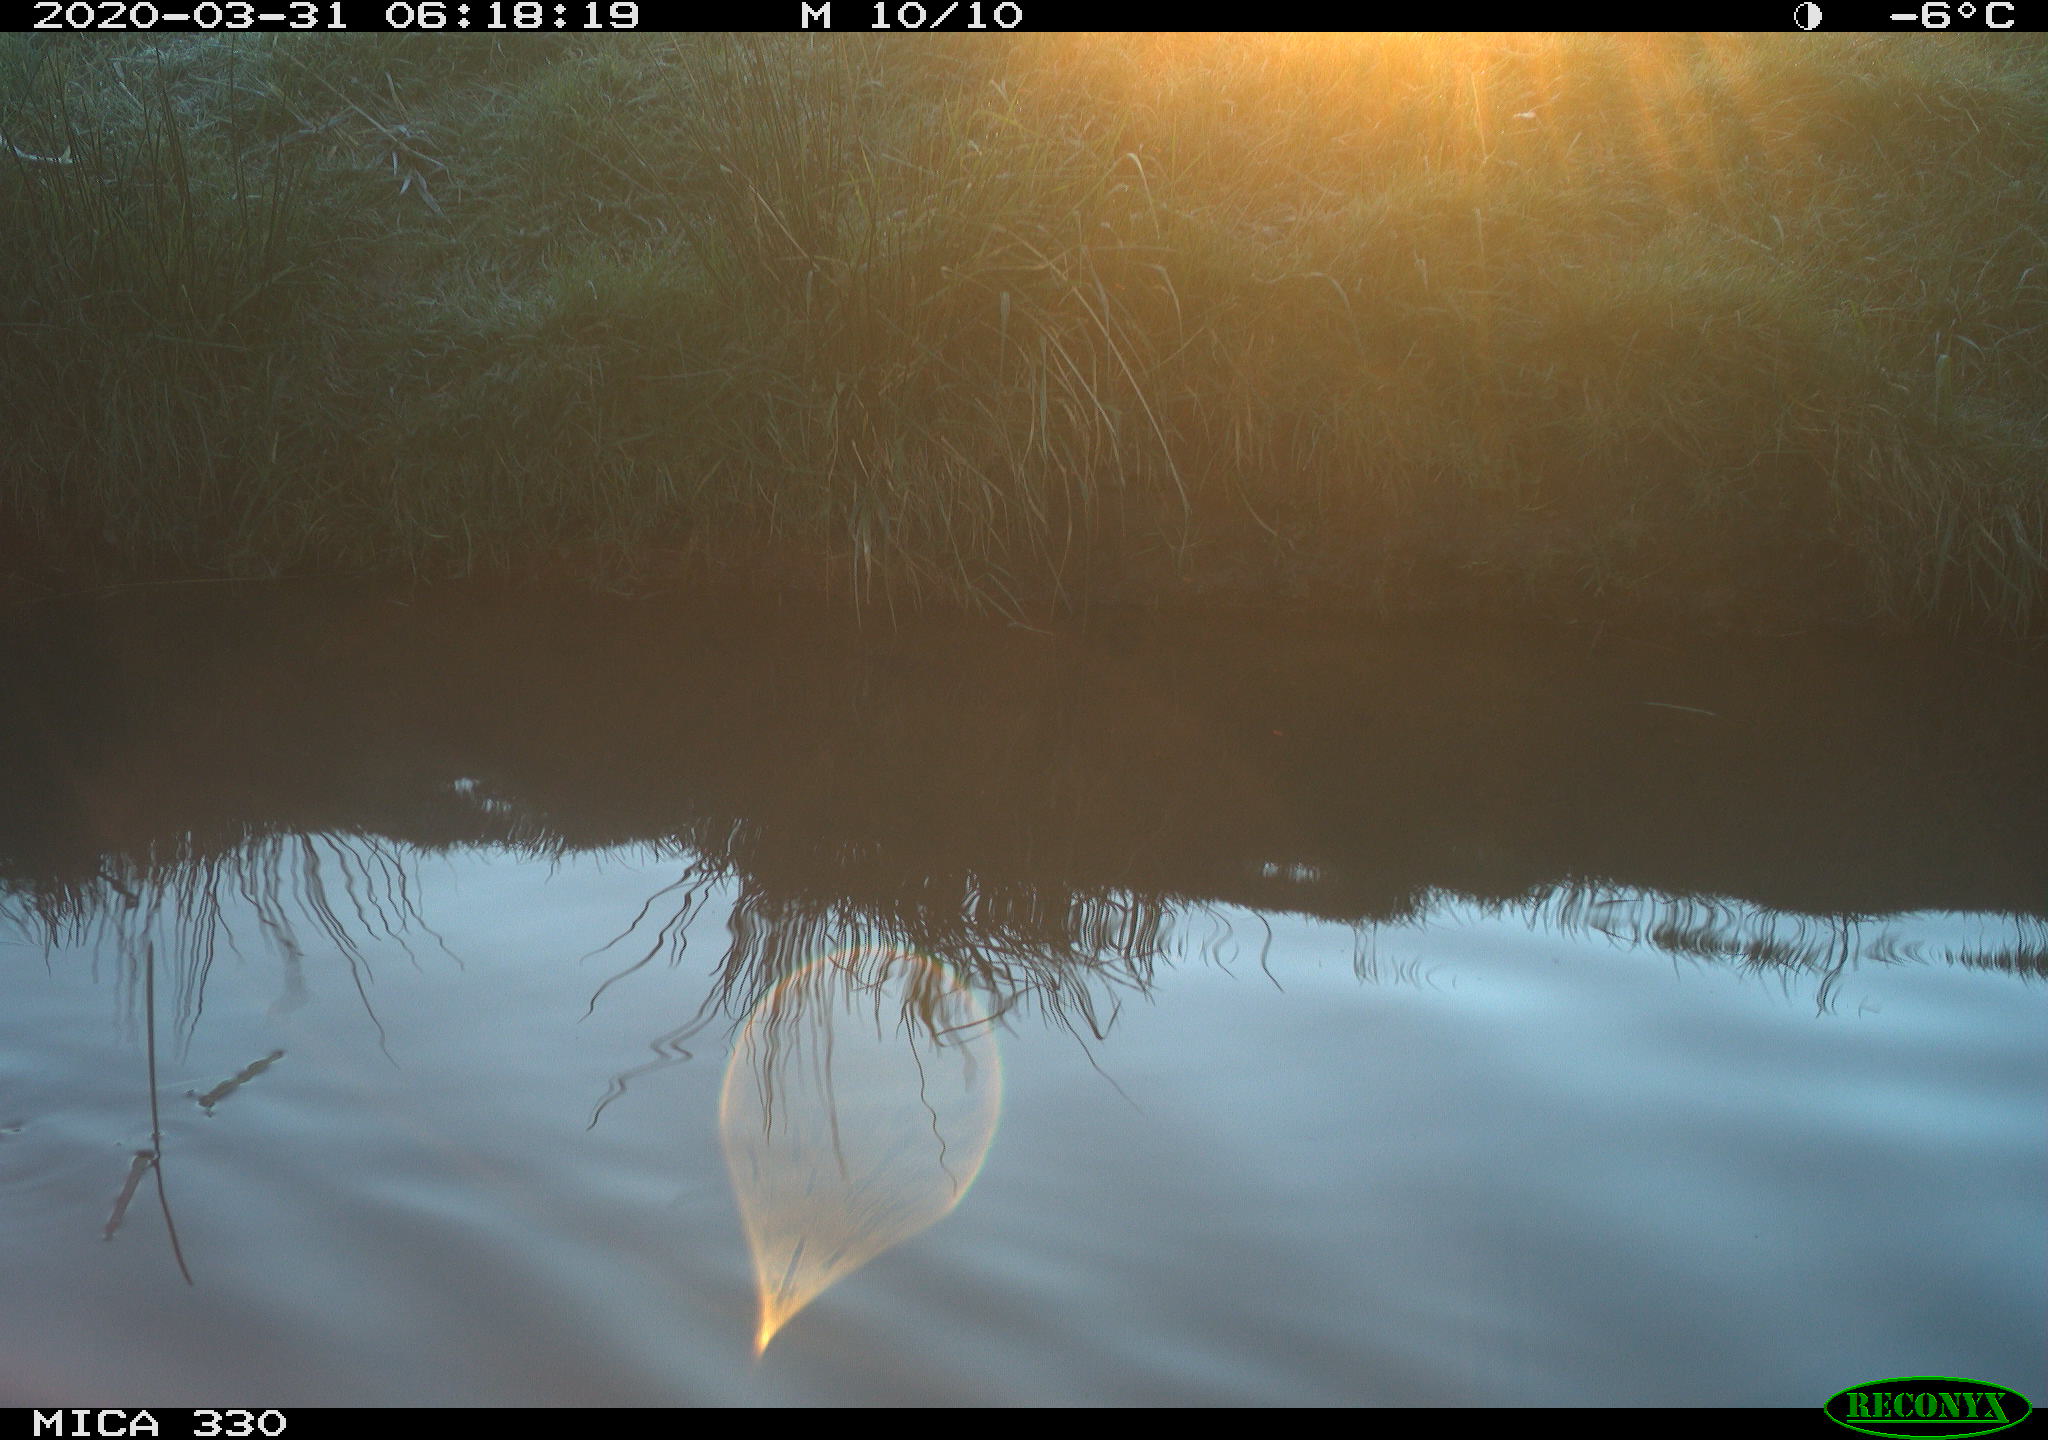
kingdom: Animalia
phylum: Chordata
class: Aves
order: Anseriformes
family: Anatidae
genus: Anas
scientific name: Anas platyrhynchos
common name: Mallard
